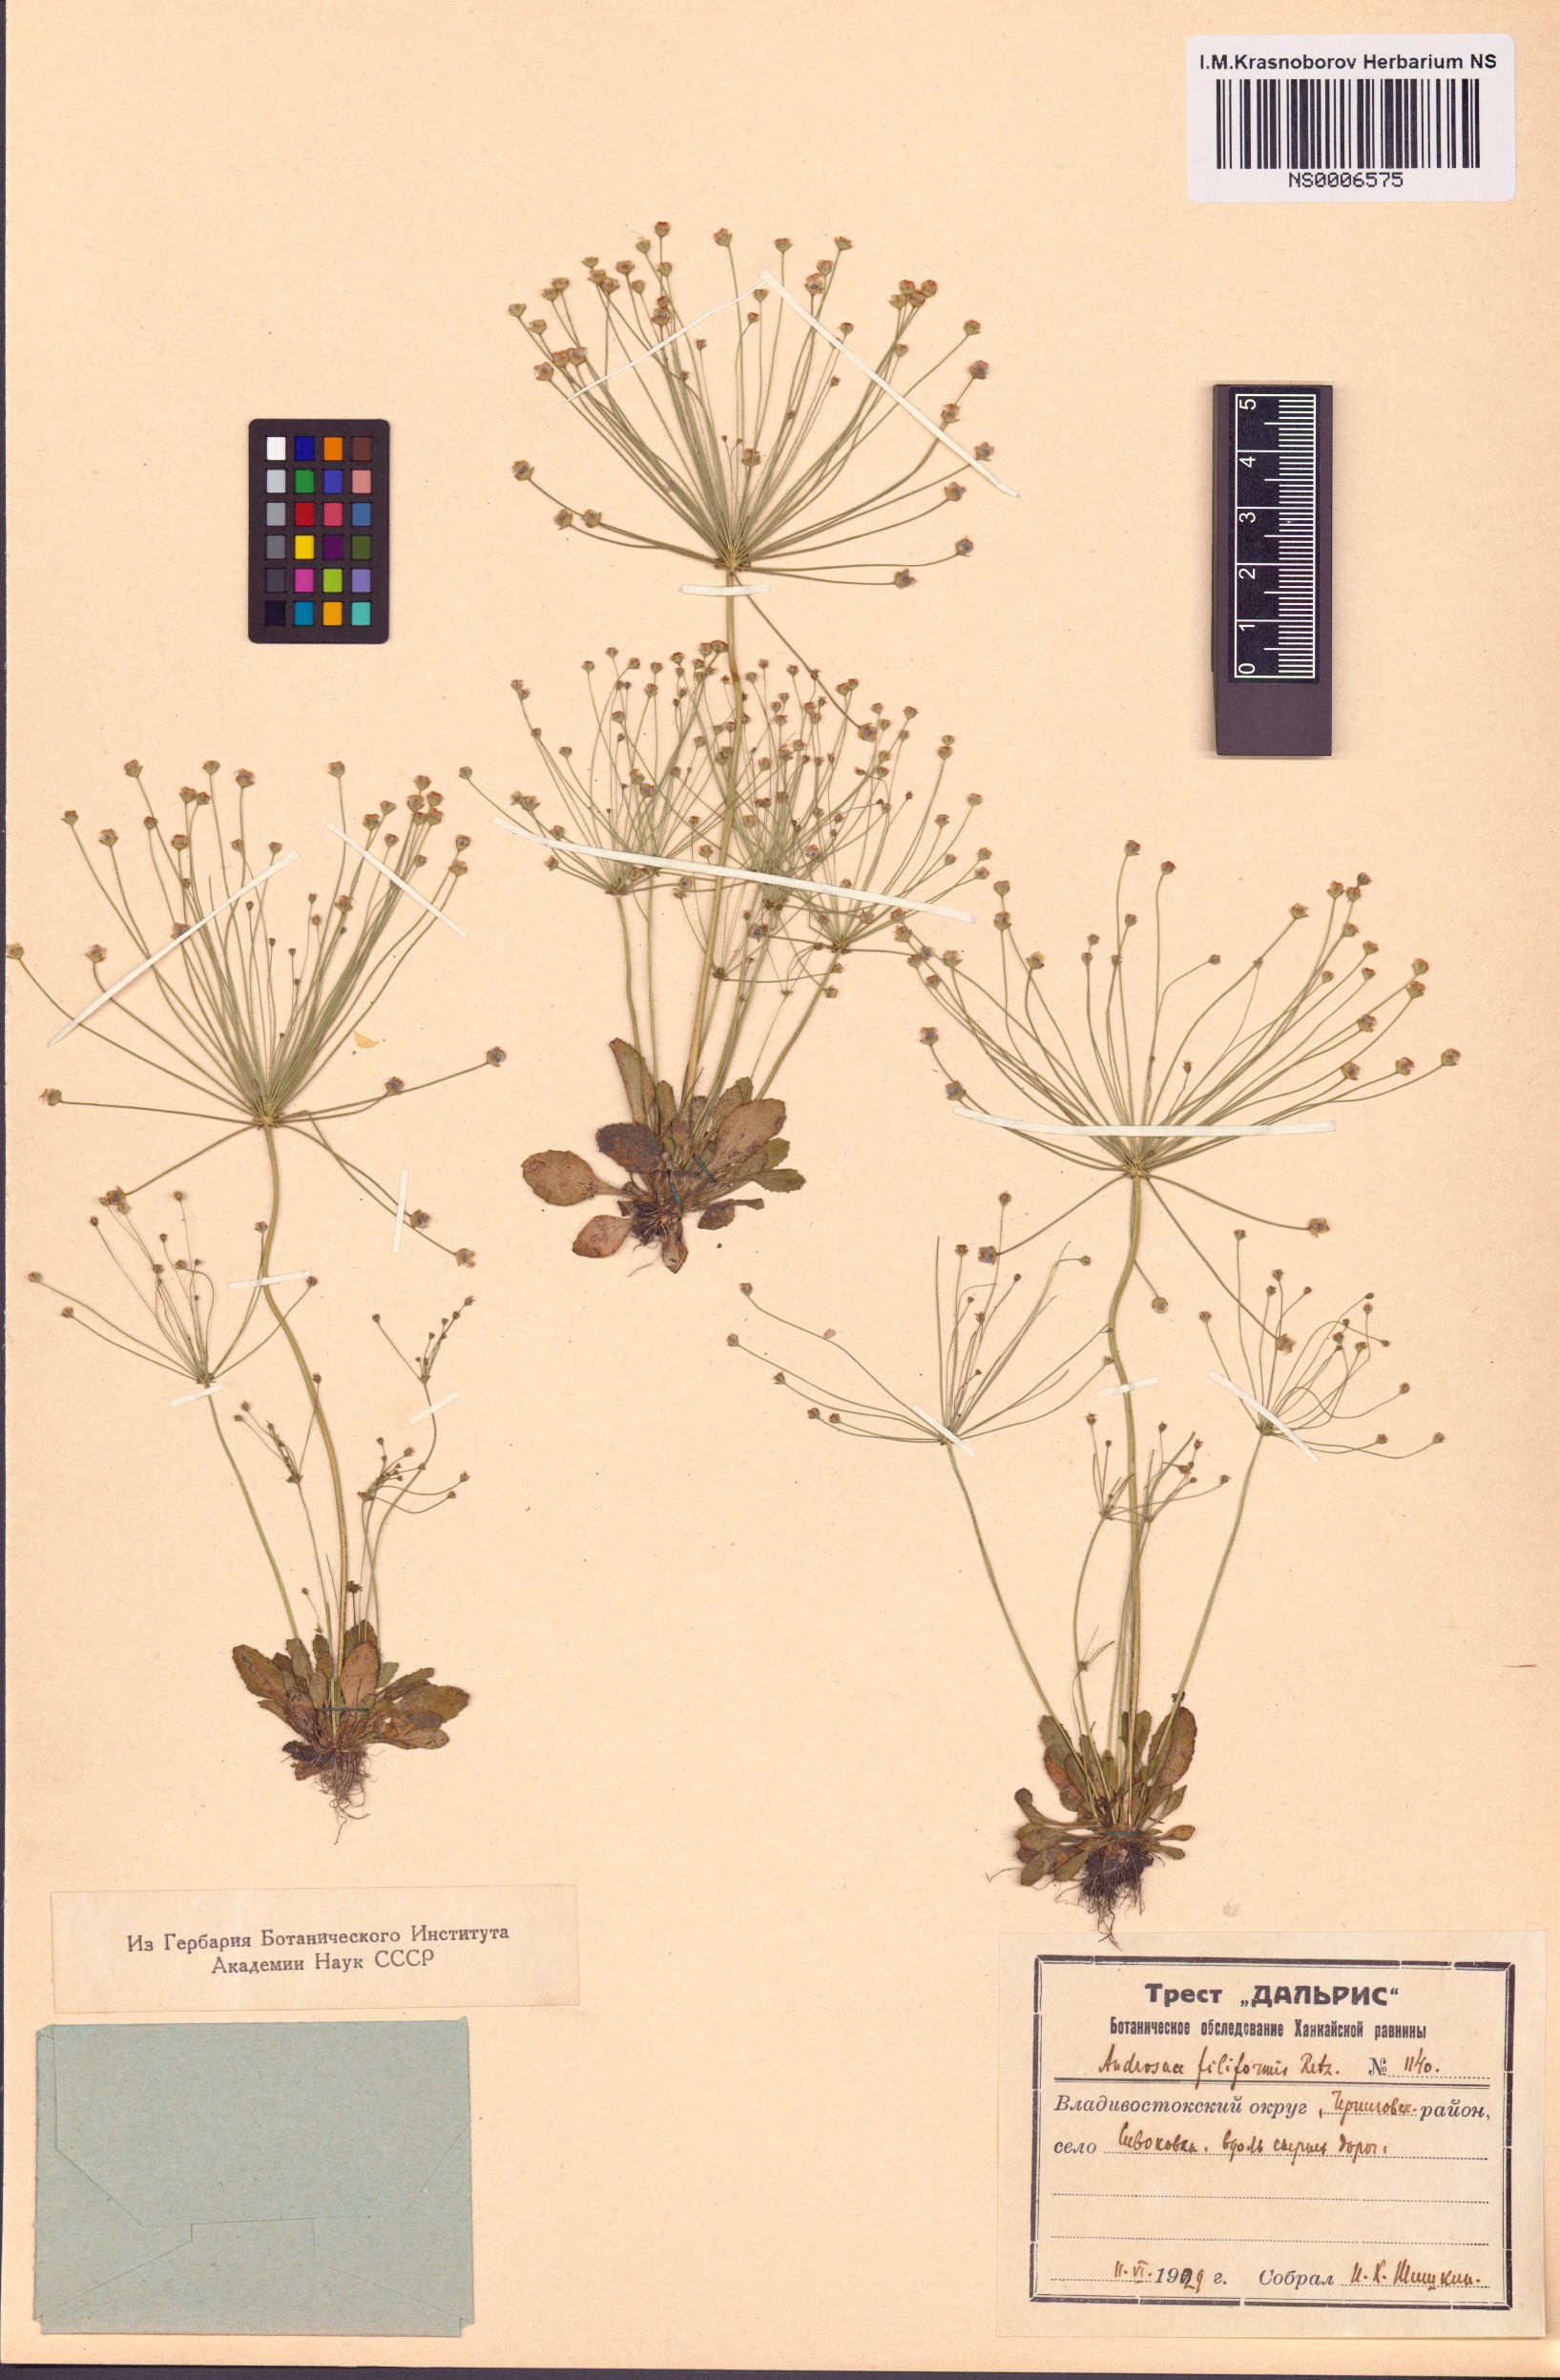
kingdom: Plantae
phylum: Tracheophyta
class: Magnoliopsida
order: Ericales
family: Primulaceae
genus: Androsace
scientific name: Androsace filiformis
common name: Filiform rock jasmine
